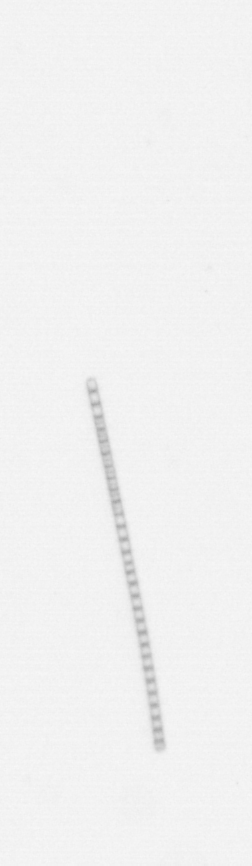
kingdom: Chromista
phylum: Ochrophyta
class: Bacillariophyceae
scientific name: Bacillariophyceae
